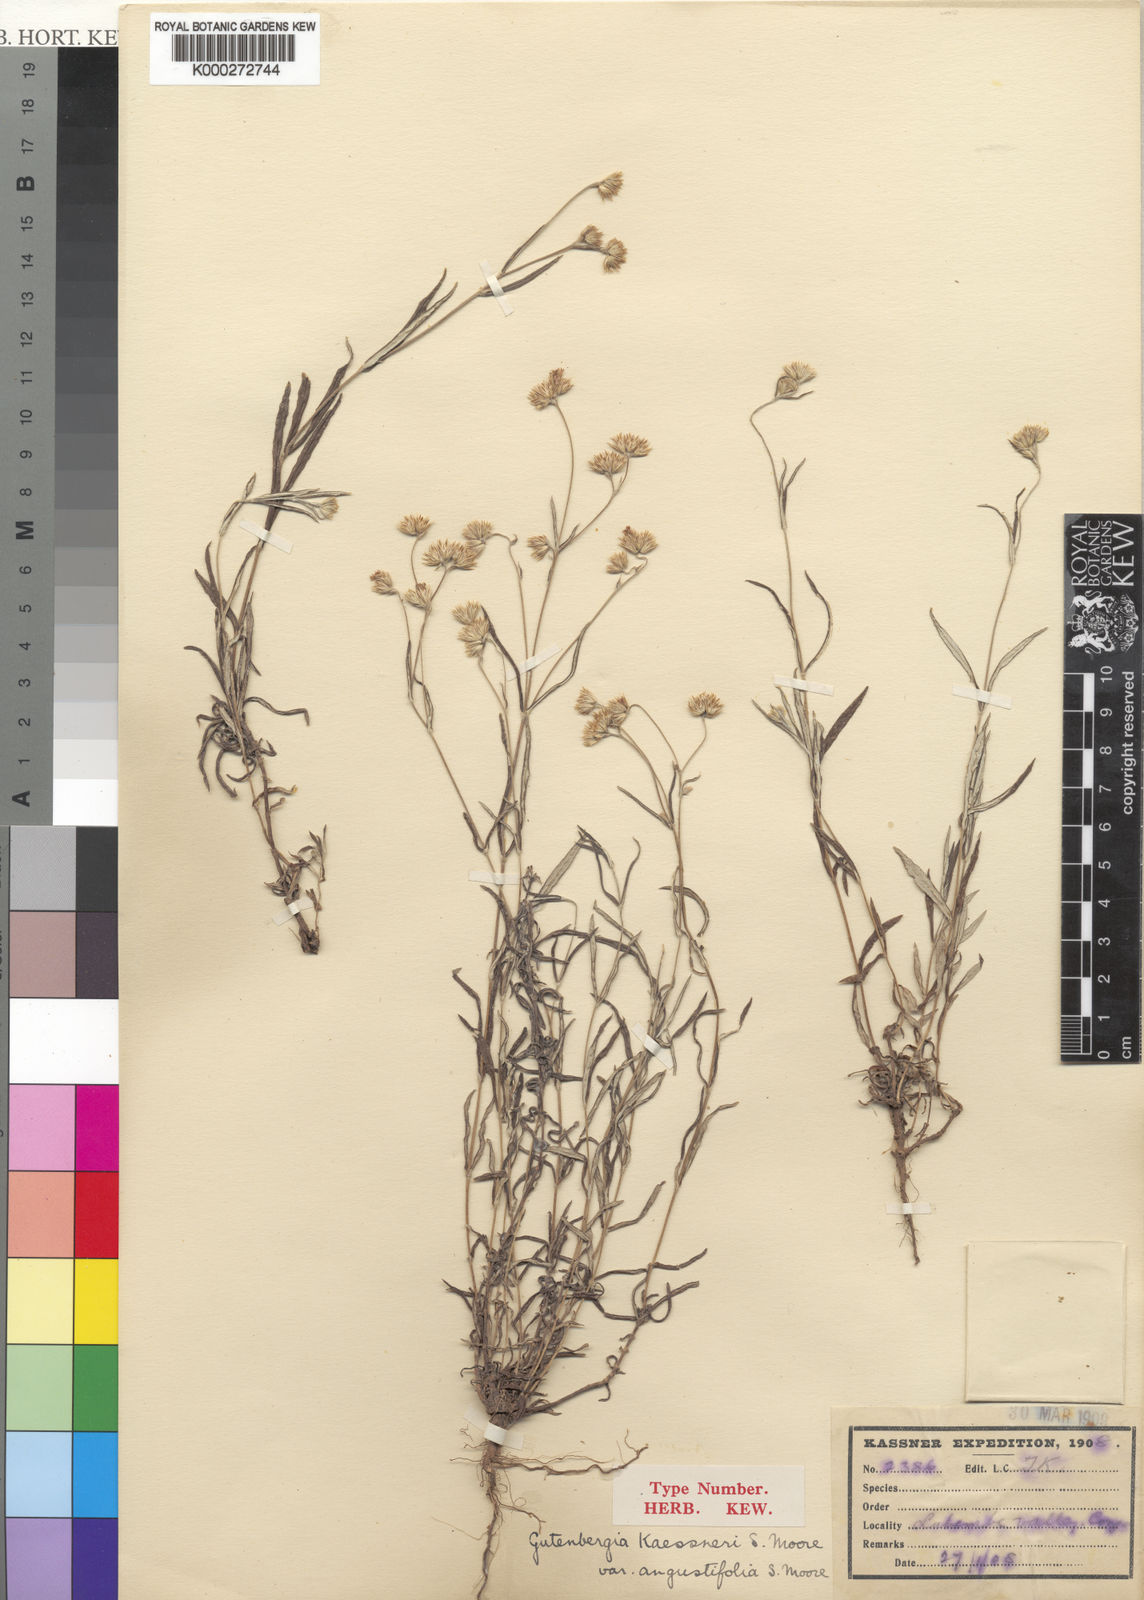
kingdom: Plantae
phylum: Tracheophyta
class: Magnoliopsida
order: Asterales
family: Asteraceae
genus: Gutenbergia
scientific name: Gutenbergia kassneri
